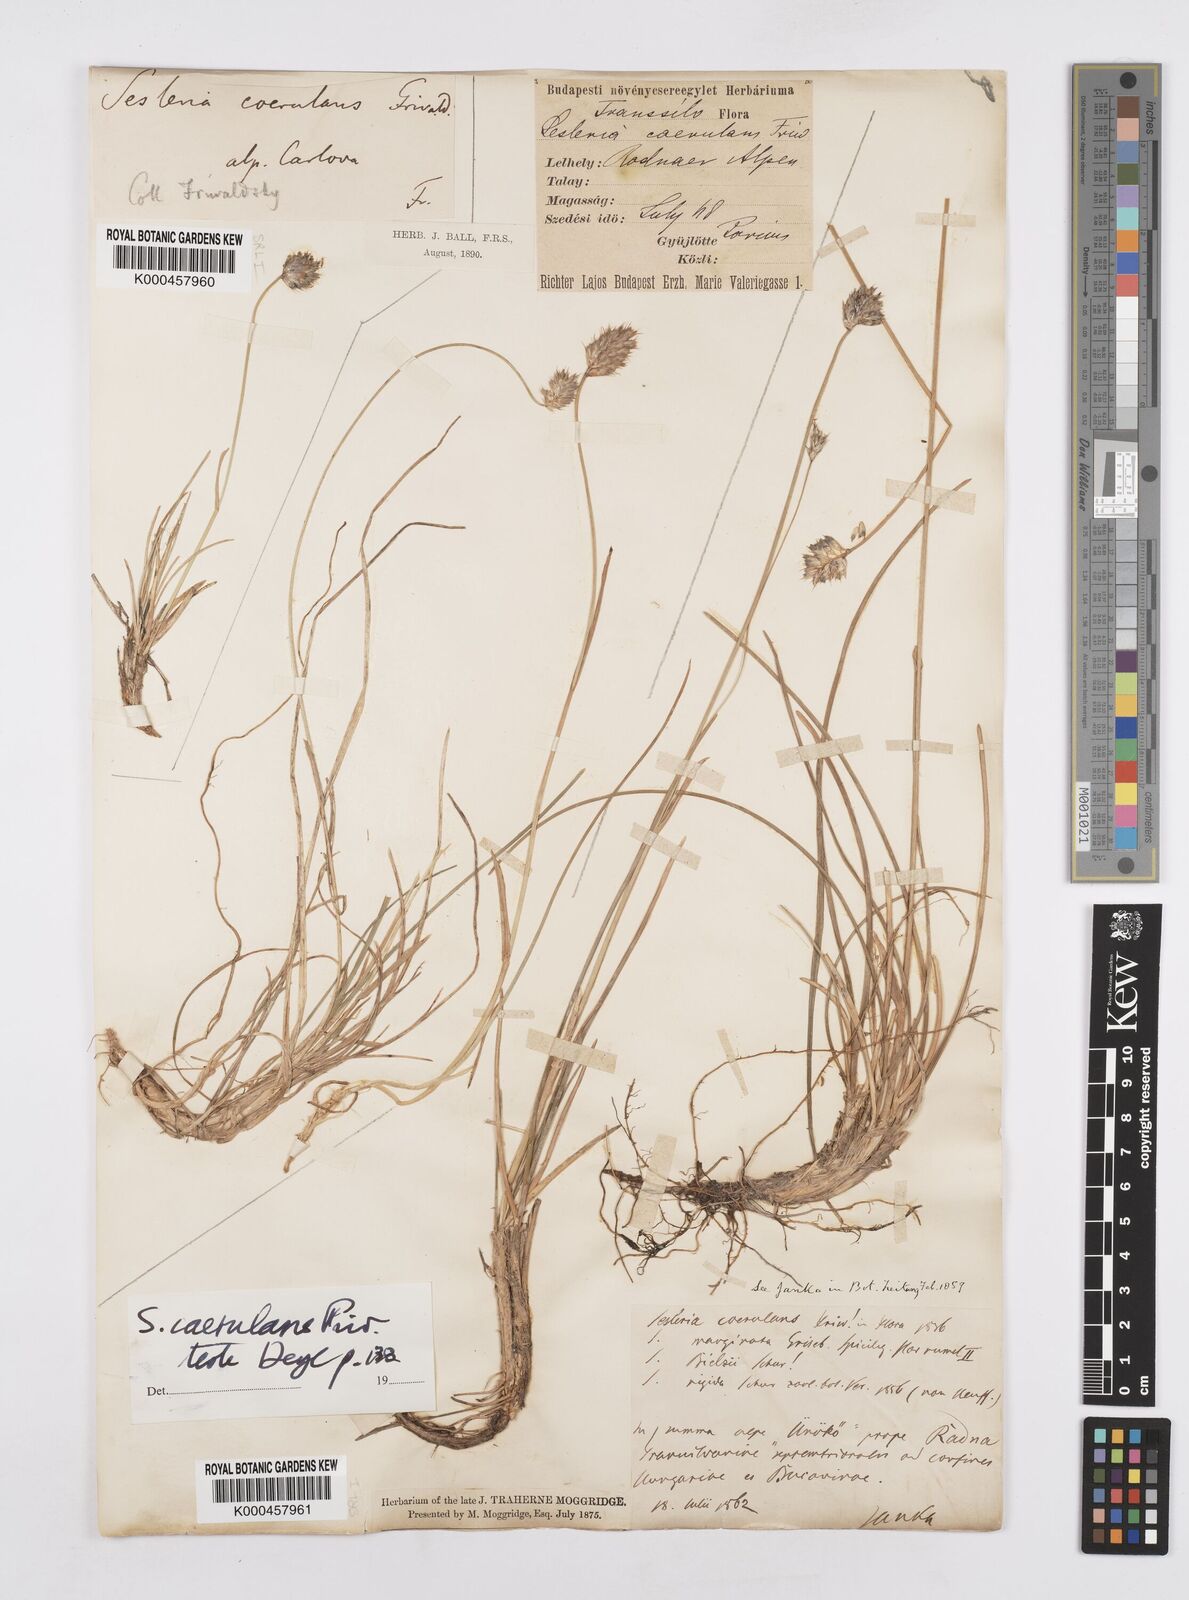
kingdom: Plantae
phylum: Tracheophyta
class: Liliopsida
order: Poales
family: Poaceae
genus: Sesleria
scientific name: Sesleria coerulans
